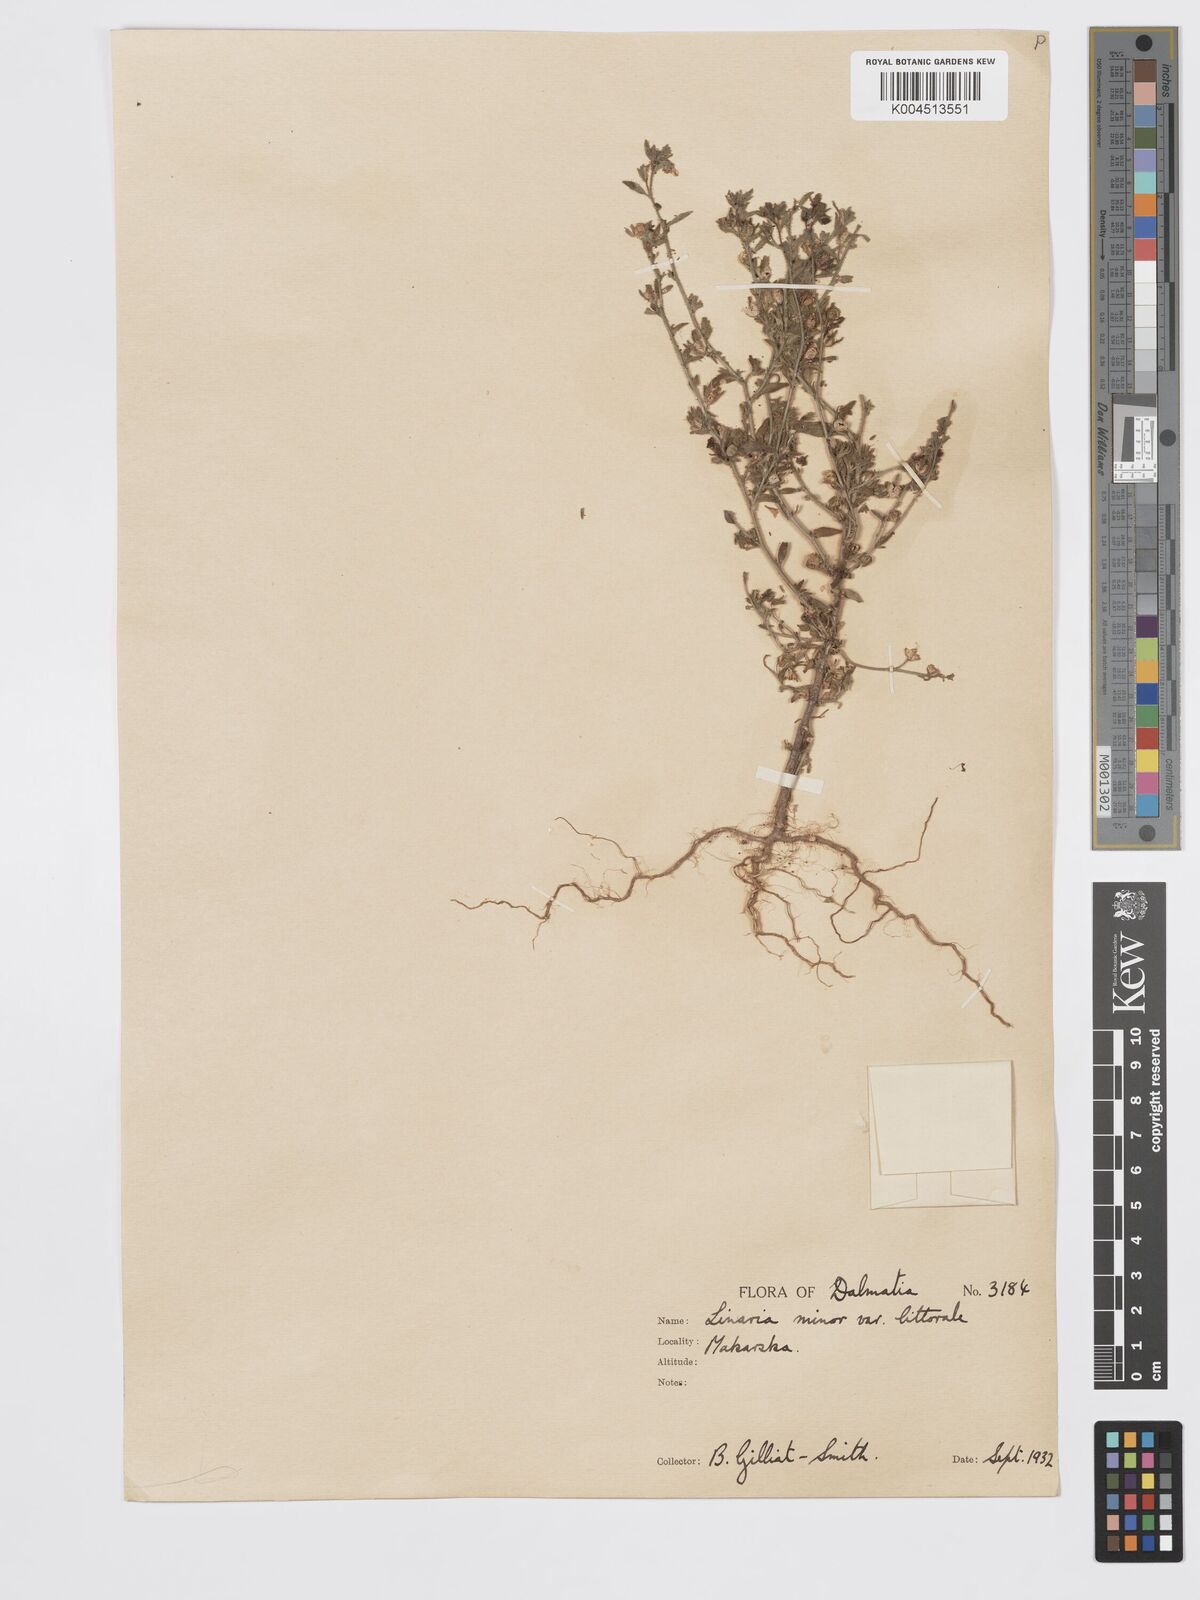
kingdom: Plantae
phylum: Tracheophyta
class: Magnoliopsida
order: Lamiales
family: Plantaginaceae
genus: Chaenorhinum
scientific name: Chaenorhinum minus
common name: Dwarf snapdragon
